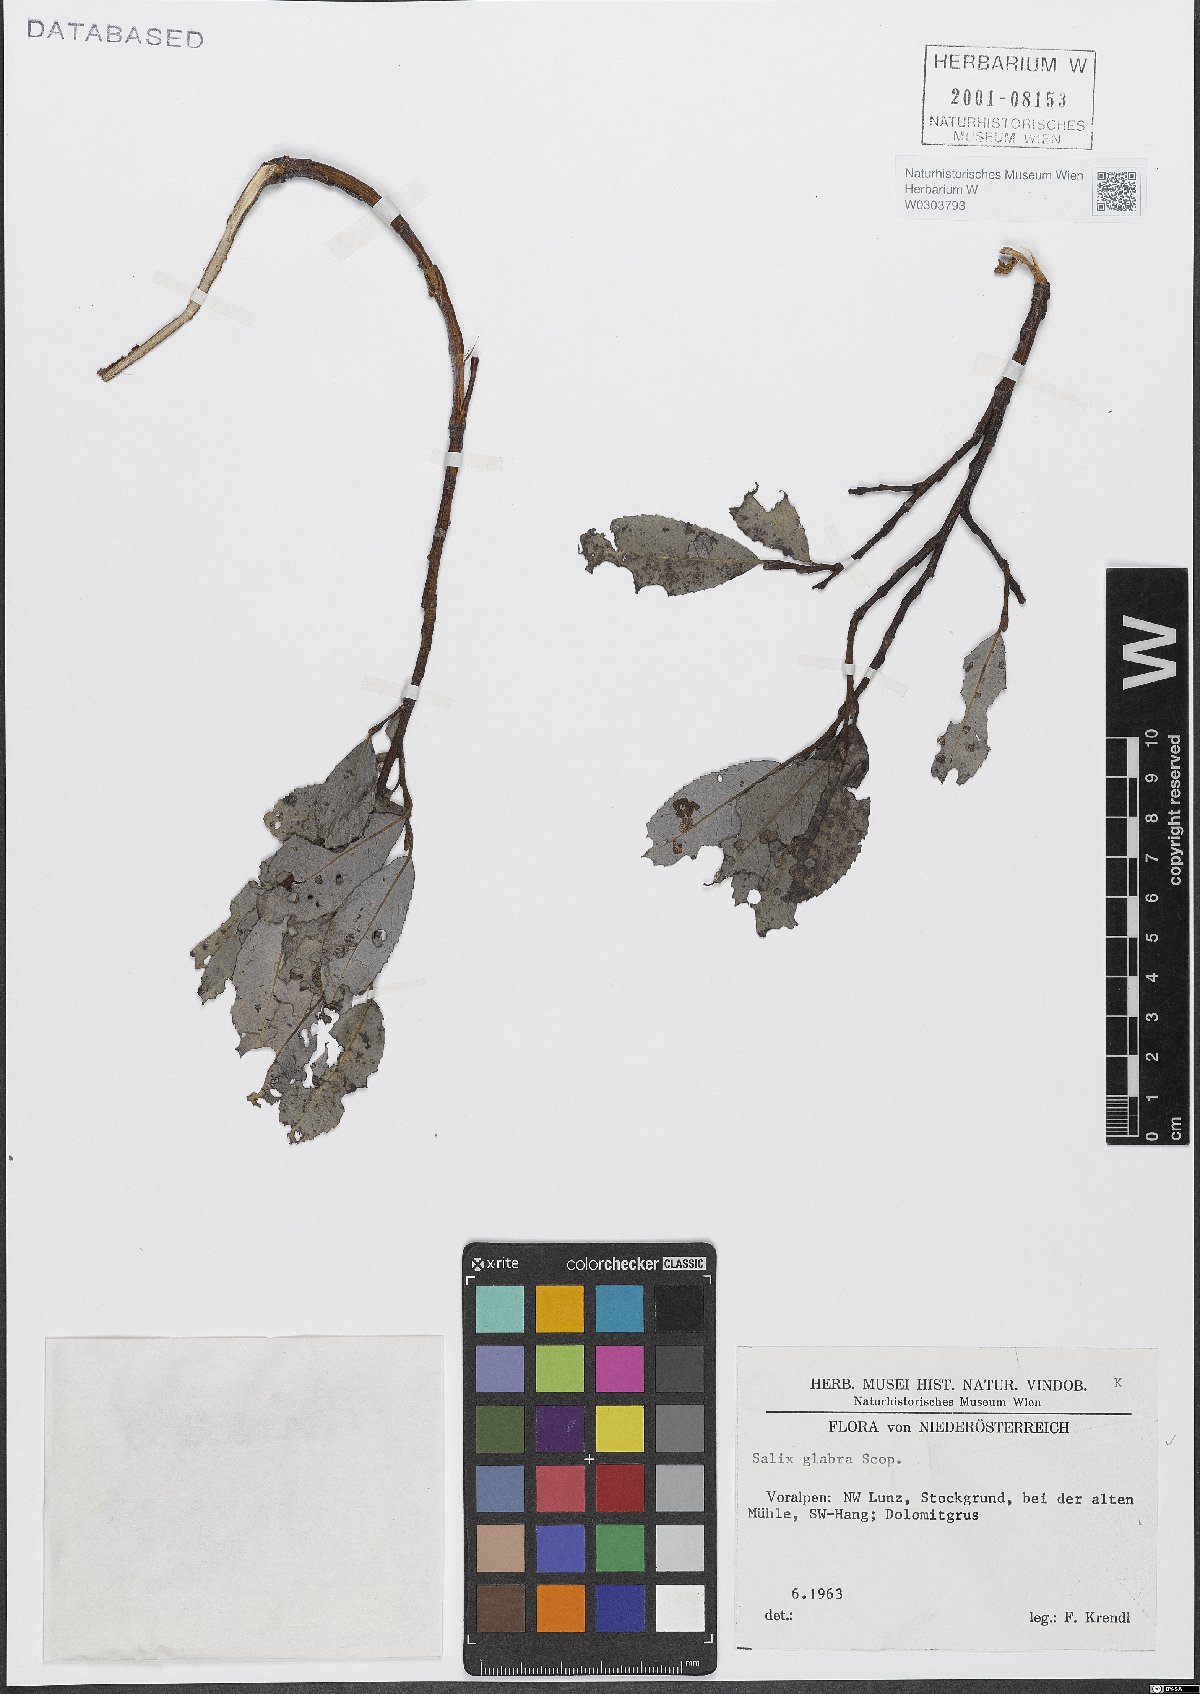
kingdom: Plantae
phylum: Tracheophyta
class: Magnoliopsida
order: Malpighiales
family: Salicaceae
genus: Salix
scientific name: Salix glabra
